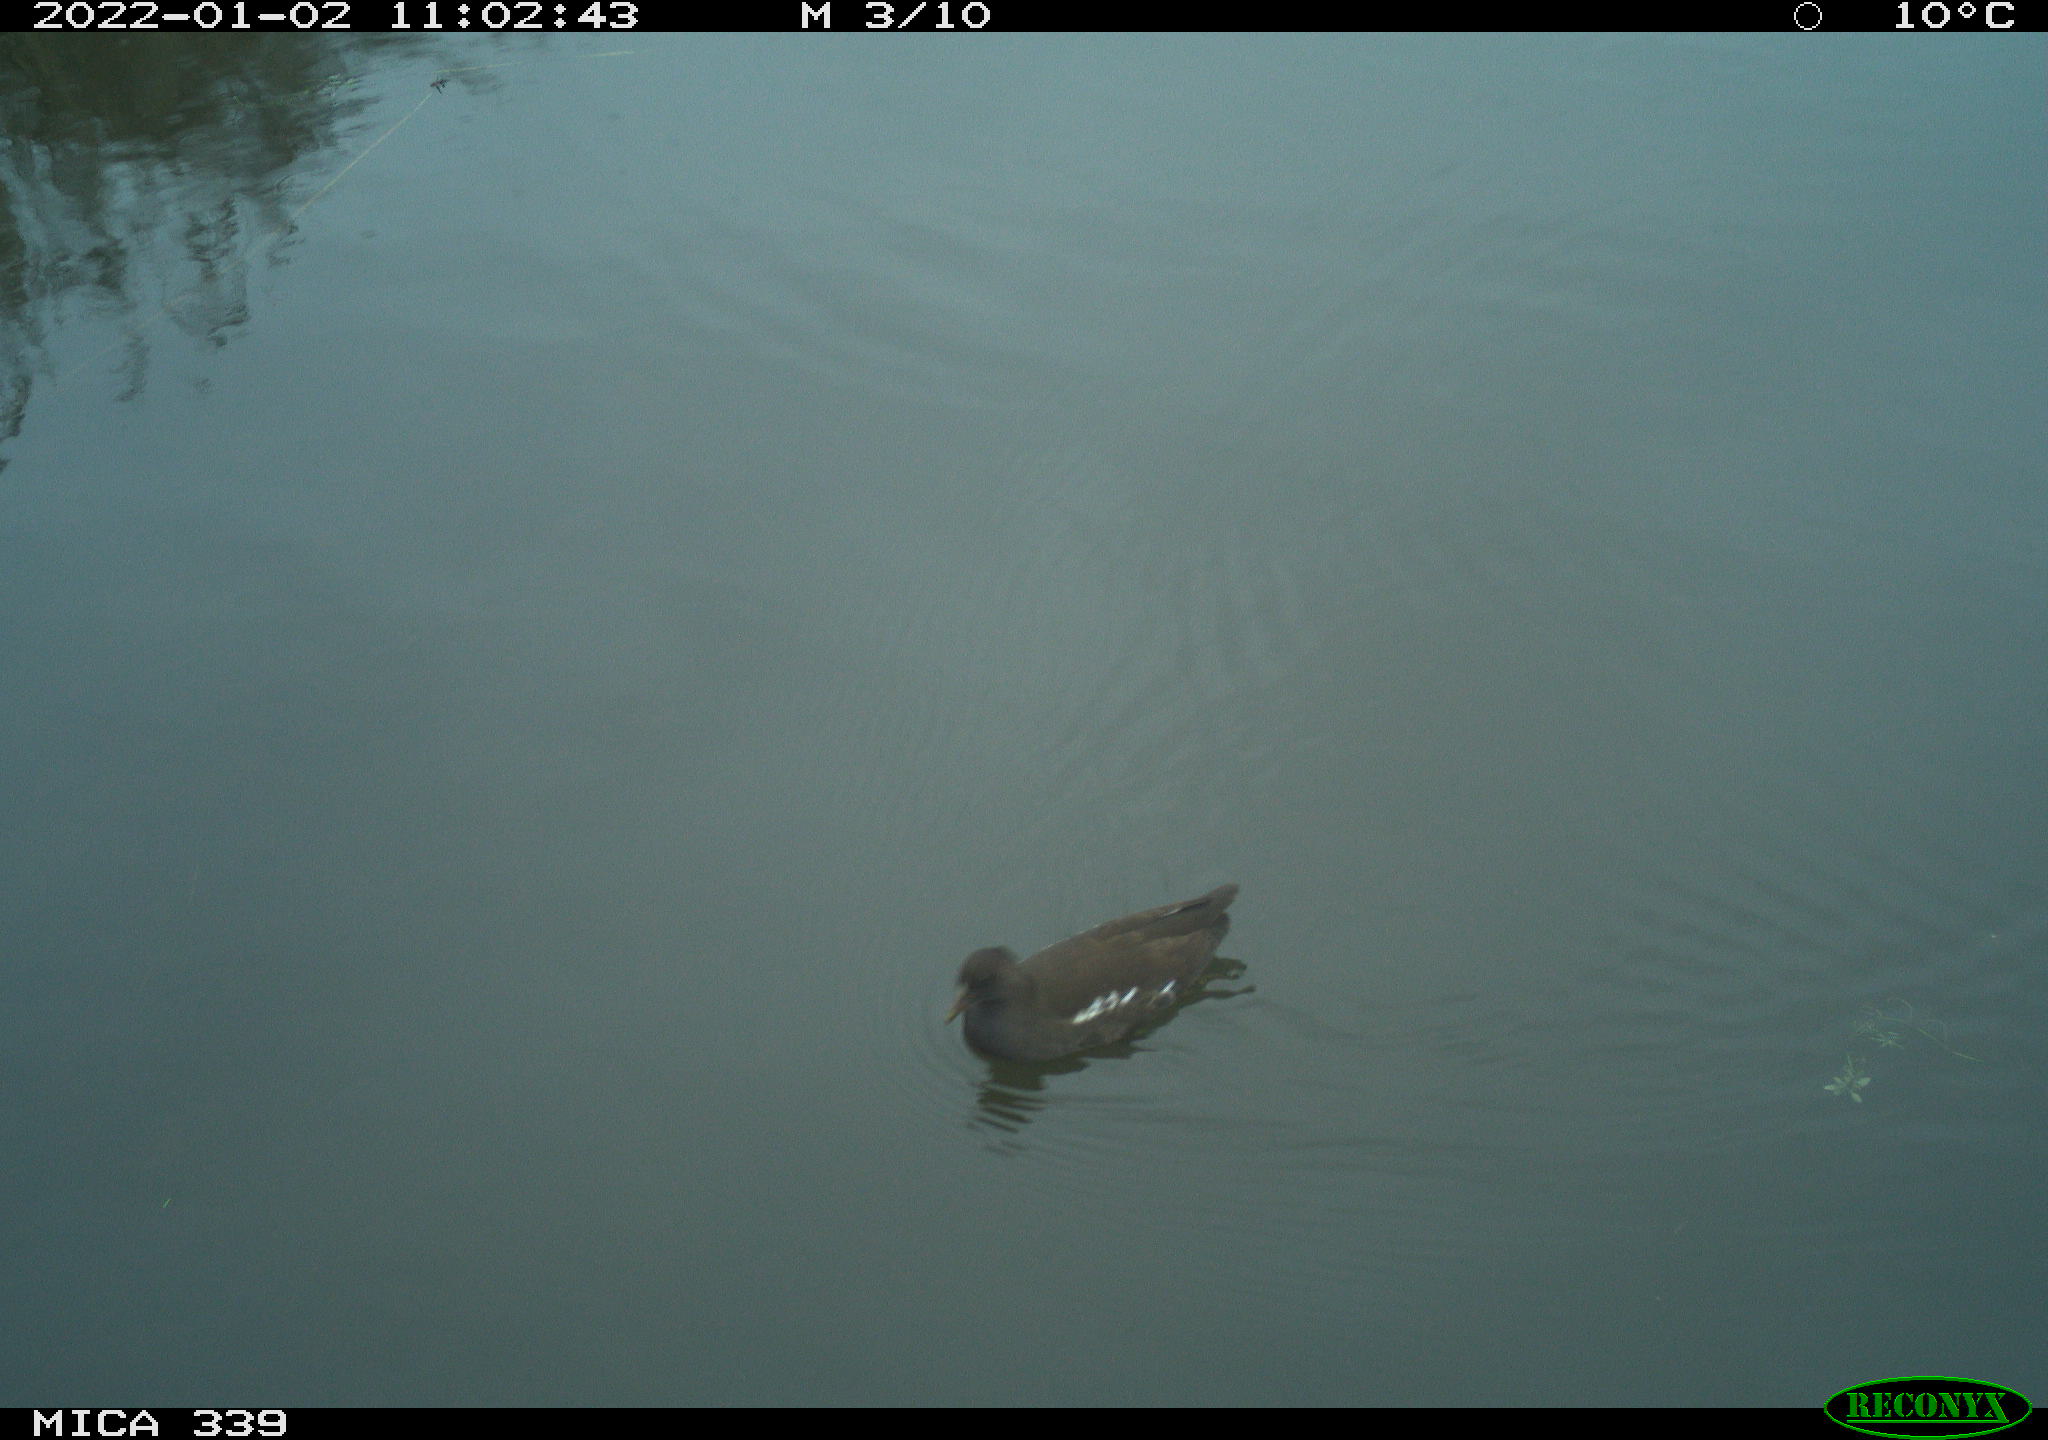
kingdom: Animalia
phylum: Chordata
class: Aves
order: Gruiformes
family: Rallidae
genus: Gallinula
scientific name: Gallinula chloropus
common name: Common moorhen
